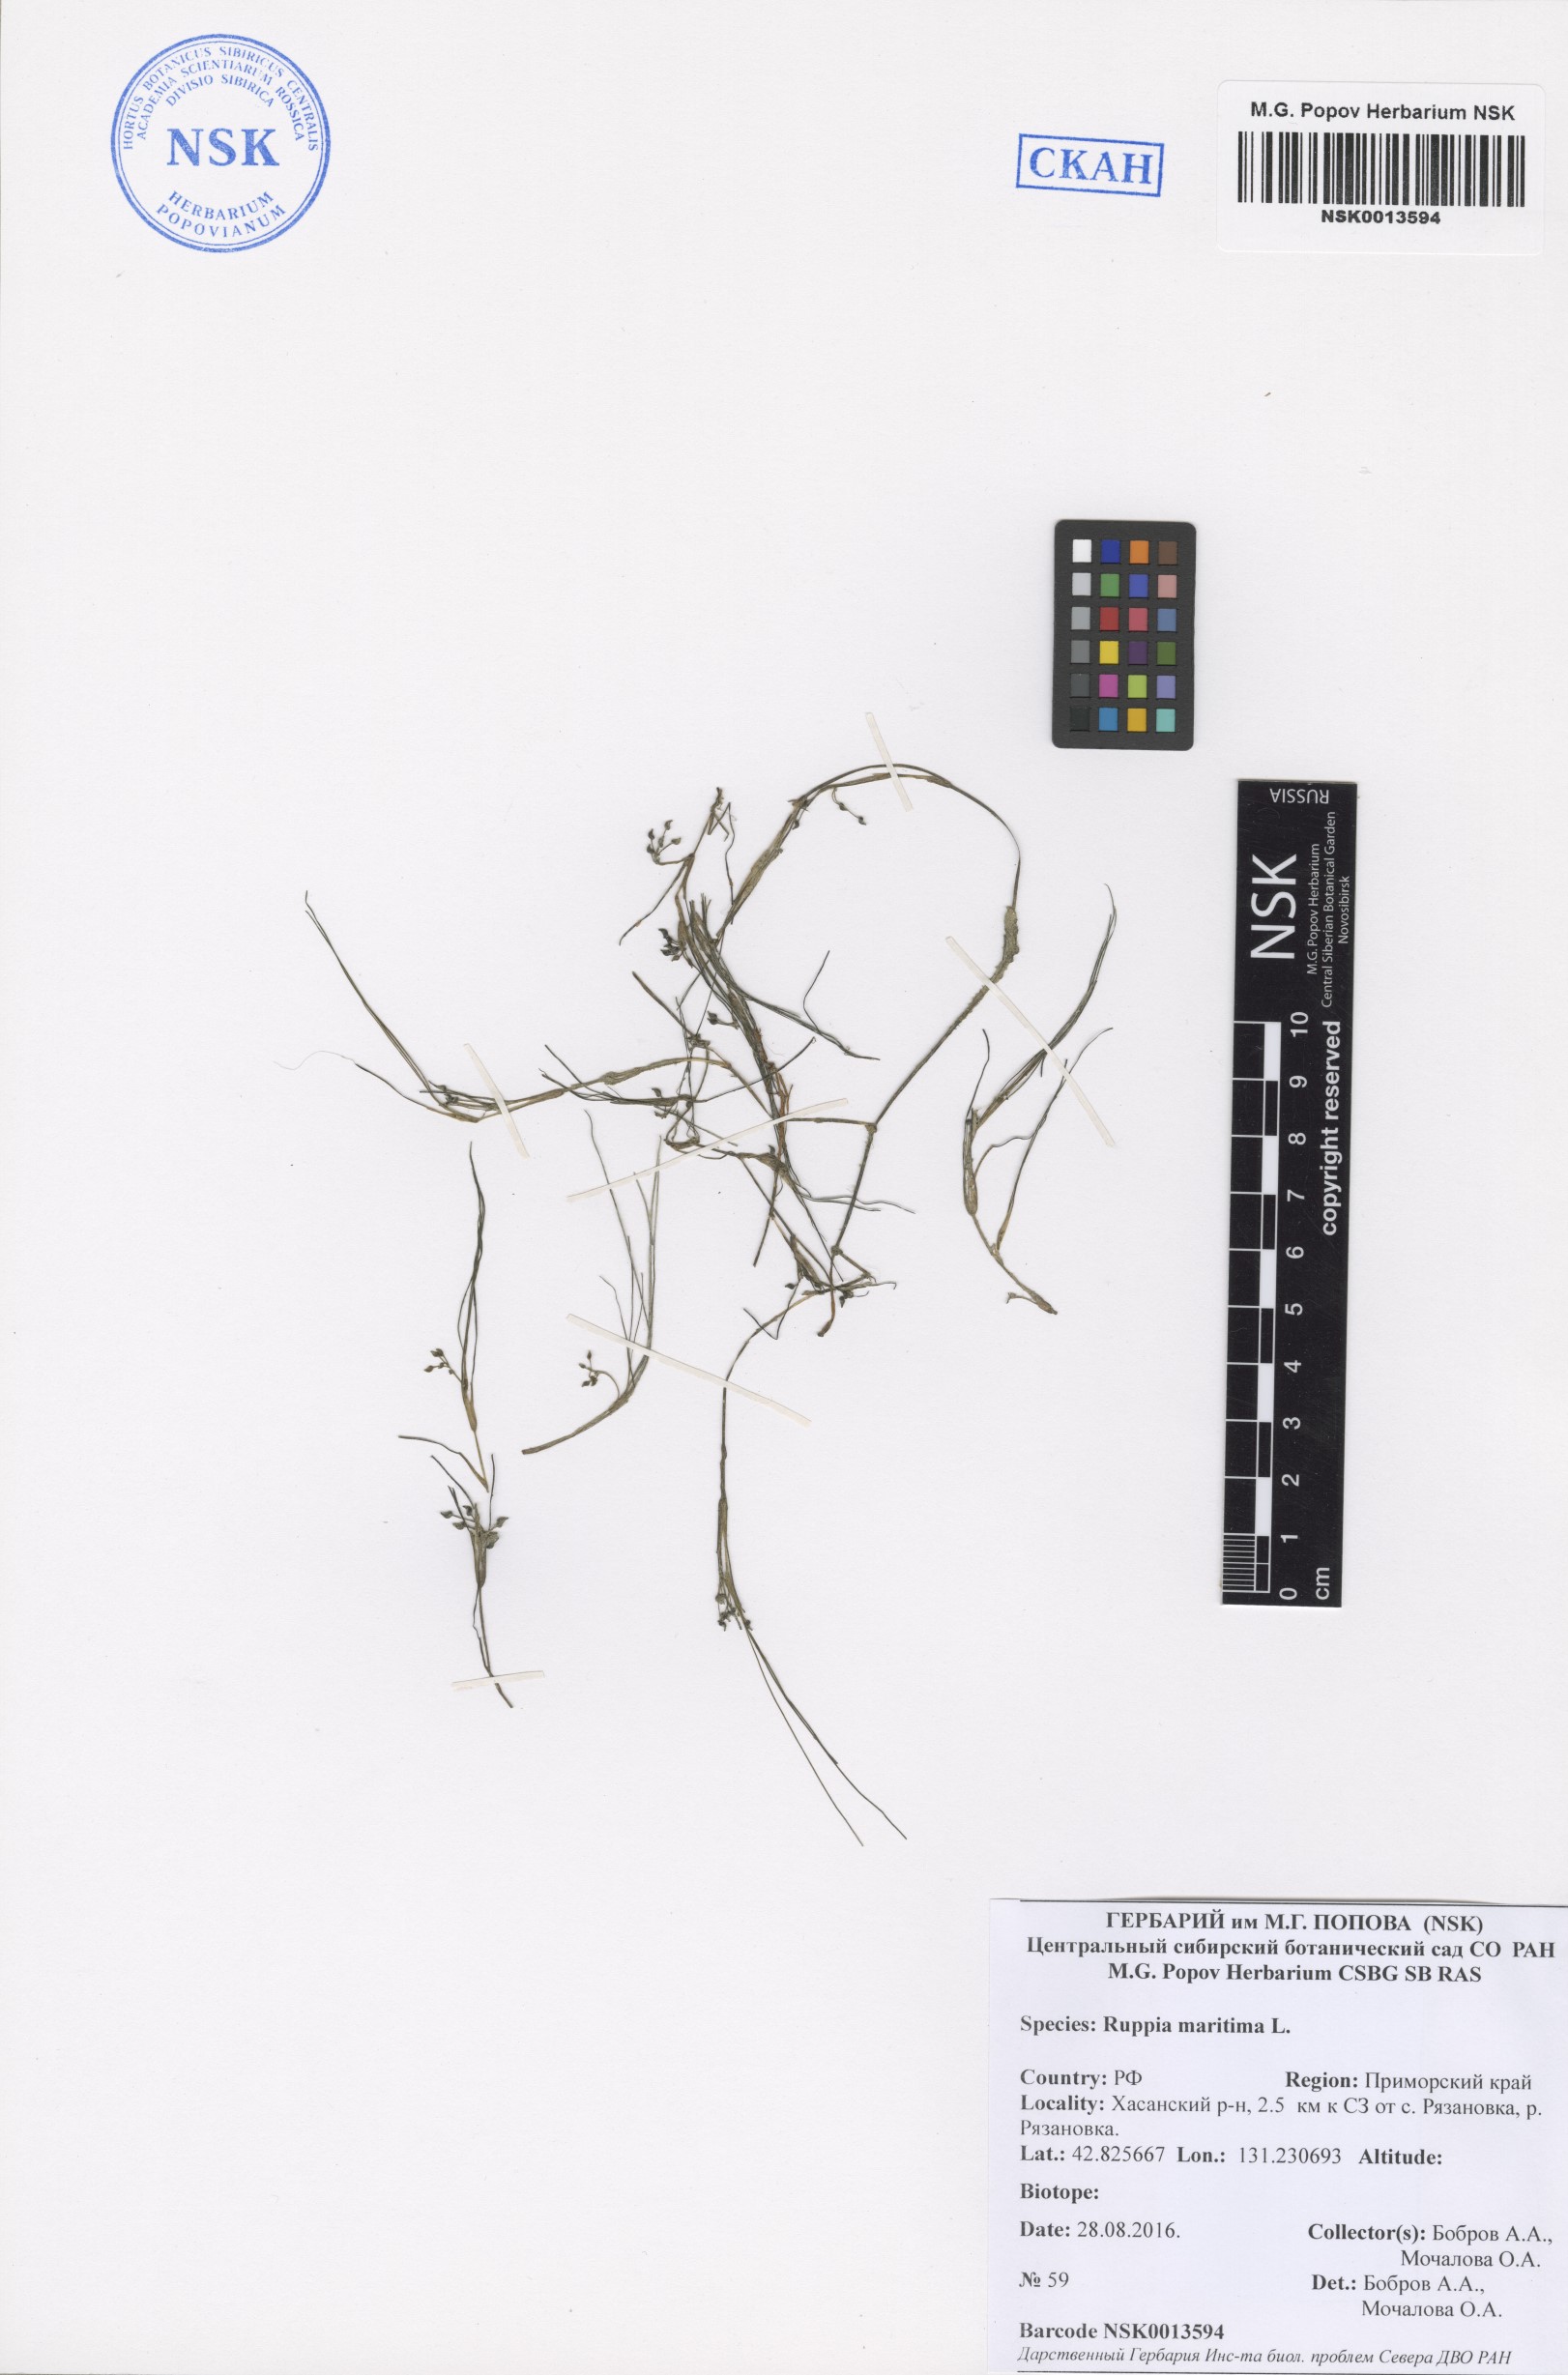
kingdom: Plantae
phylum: Tracheophyta
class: Liliopsida
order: Alismatales
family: Ruppiaceae
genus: Ruppia
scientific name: Ruppia maritima
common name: Beaked tasselweed
